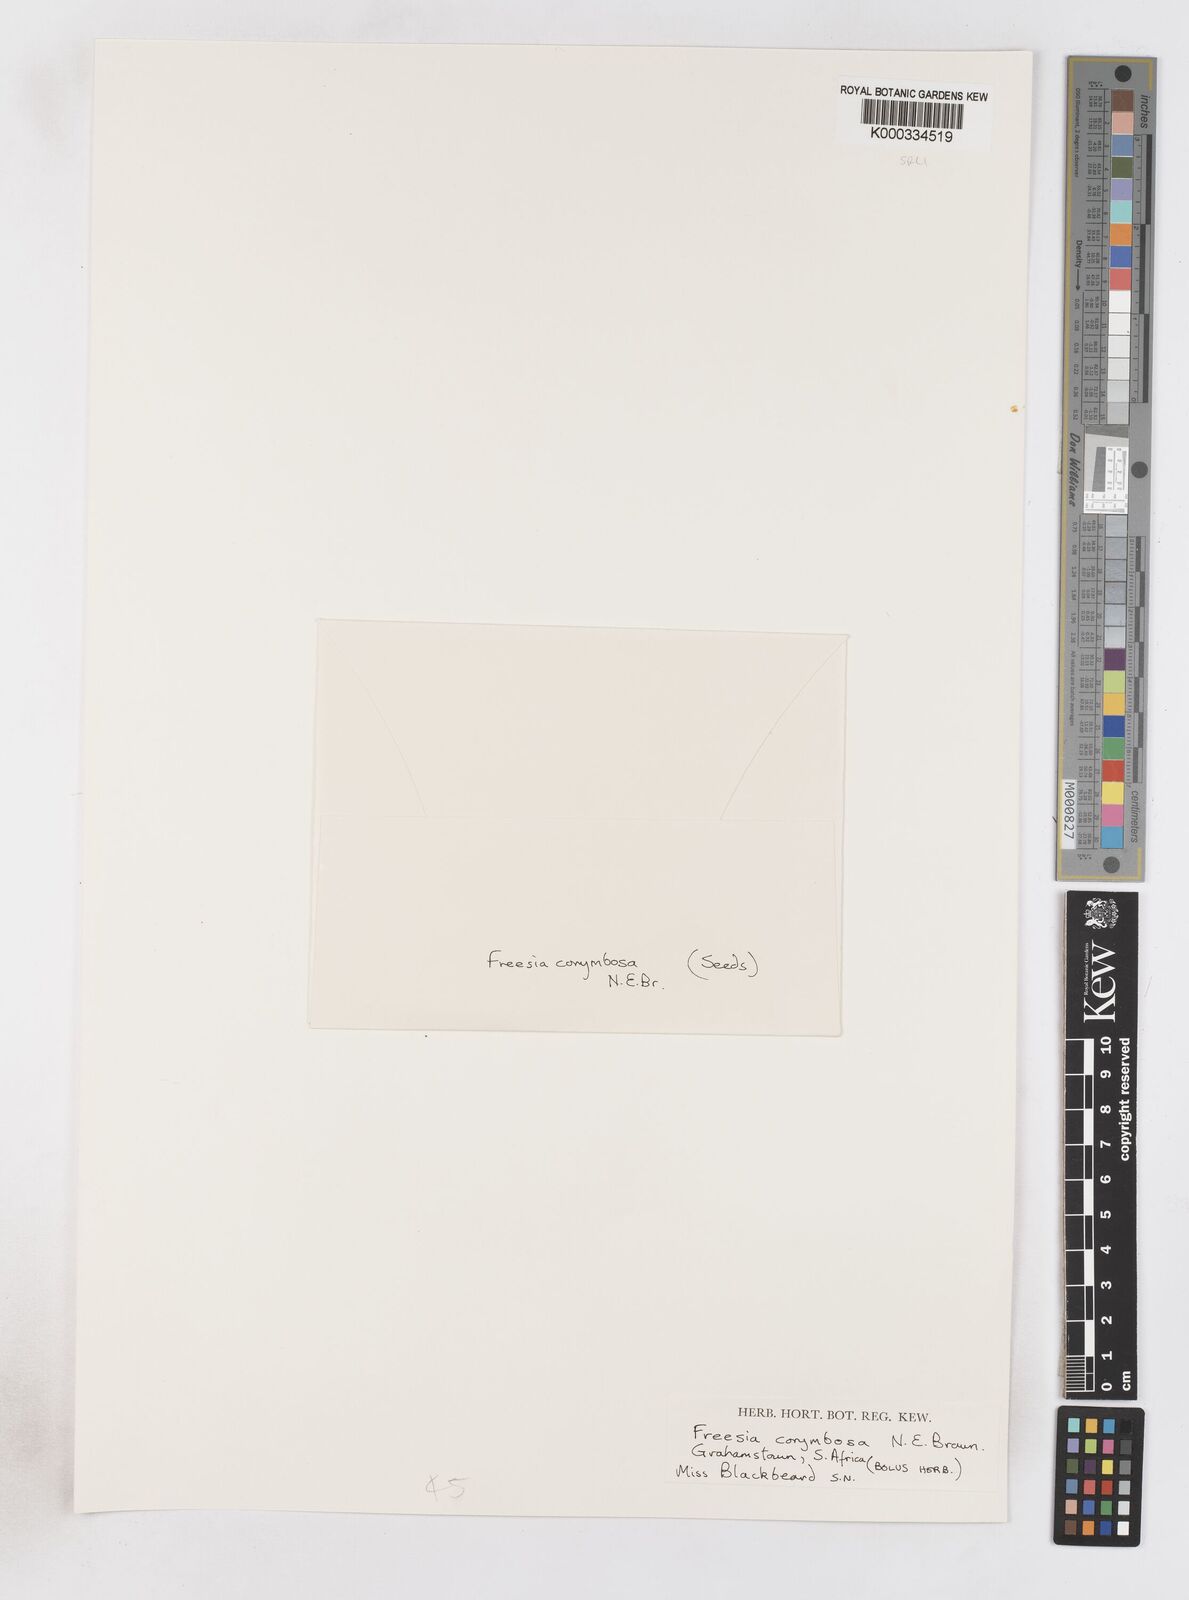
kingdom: Plantae
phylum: Tracheophyta
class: Liliopsida
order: Asparagales
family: Iridaceae
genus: Freesia
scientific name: Freesia corymbosa
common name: Common freesia
